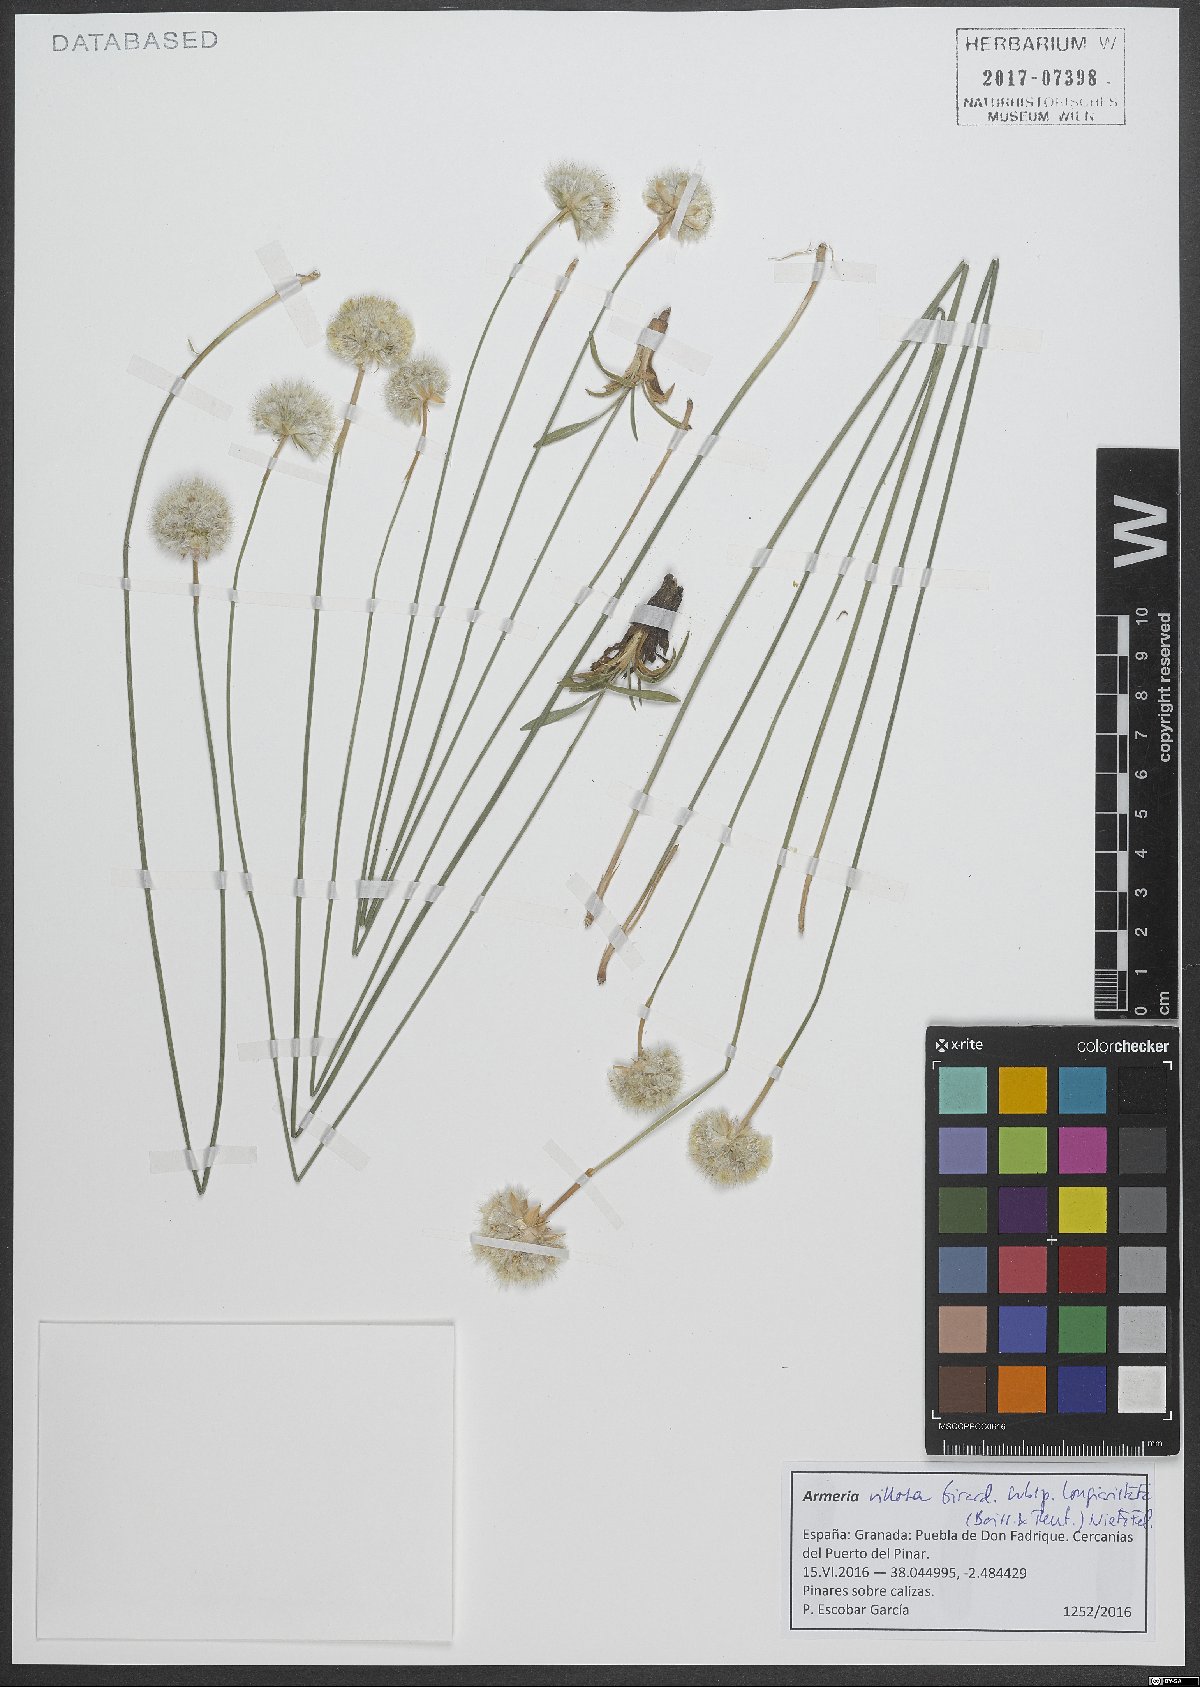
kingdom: Plantae
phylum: Tracheophyta
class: Magnoliopsida
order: Caryophyllales
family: Plumbaginaceae
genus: Armeria
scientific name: Armeria villosa
